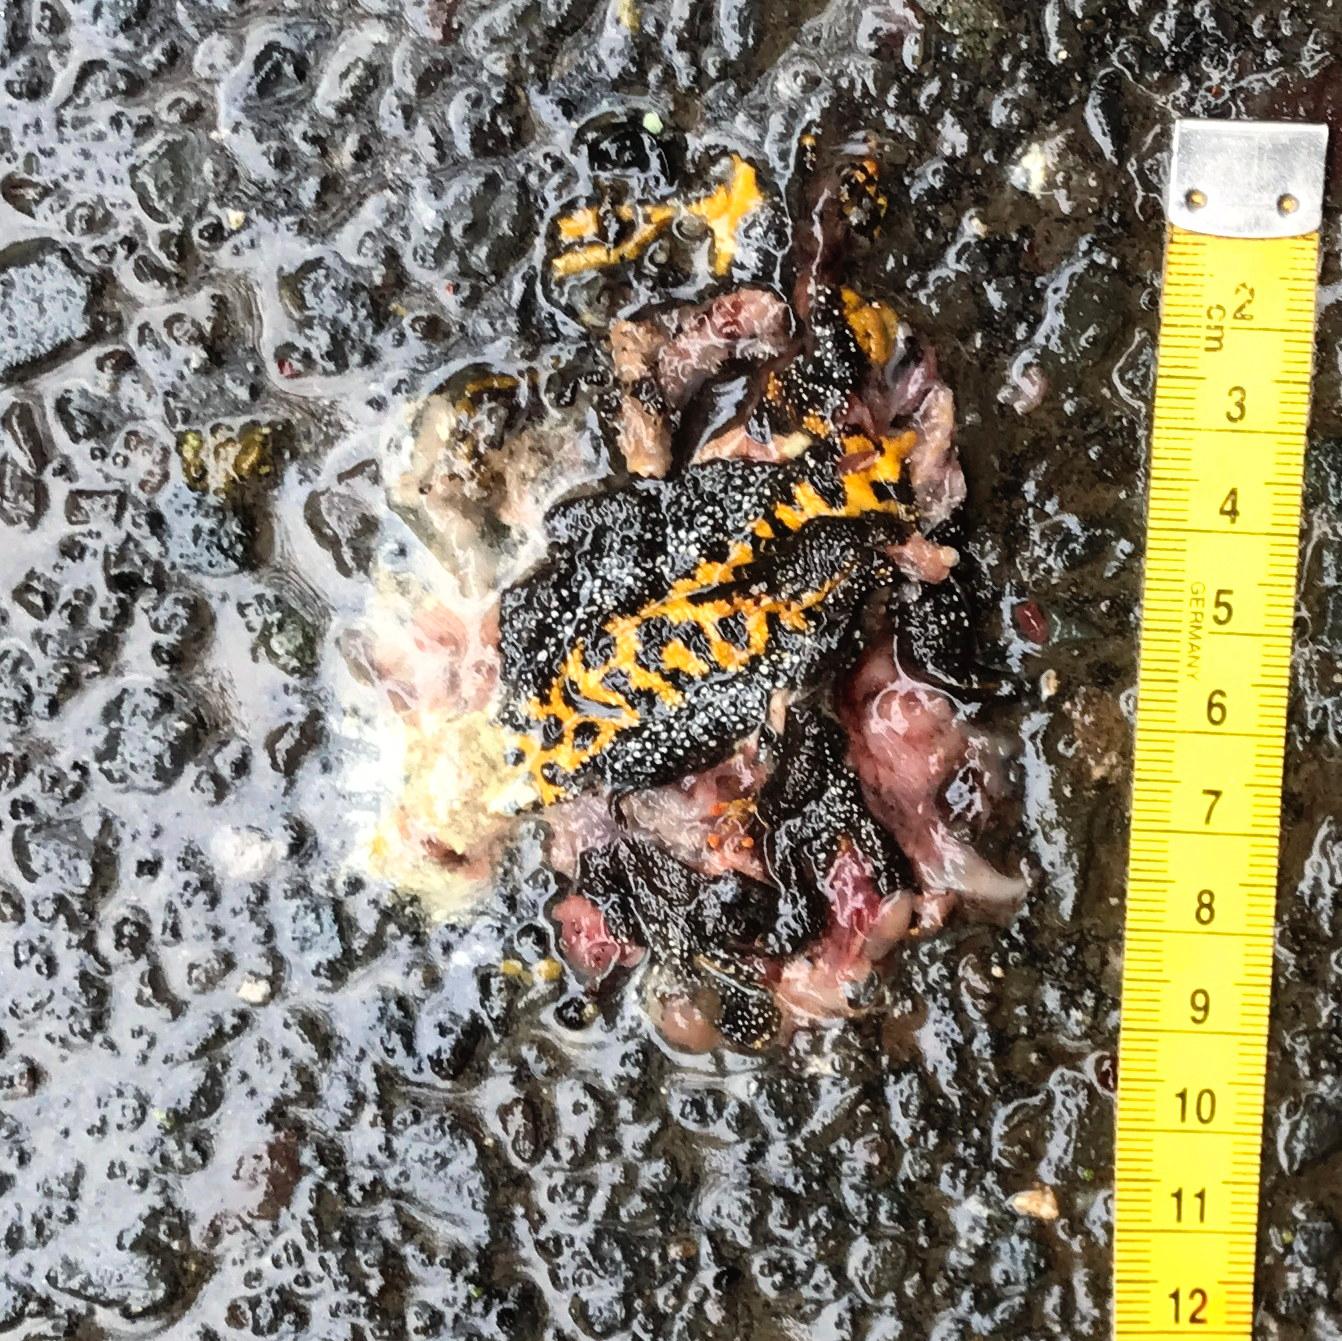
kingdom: Animalia
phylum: Chordata
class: Amphibia
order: Caudata
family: Salamandridae
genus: Triturus
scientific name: Triturus
